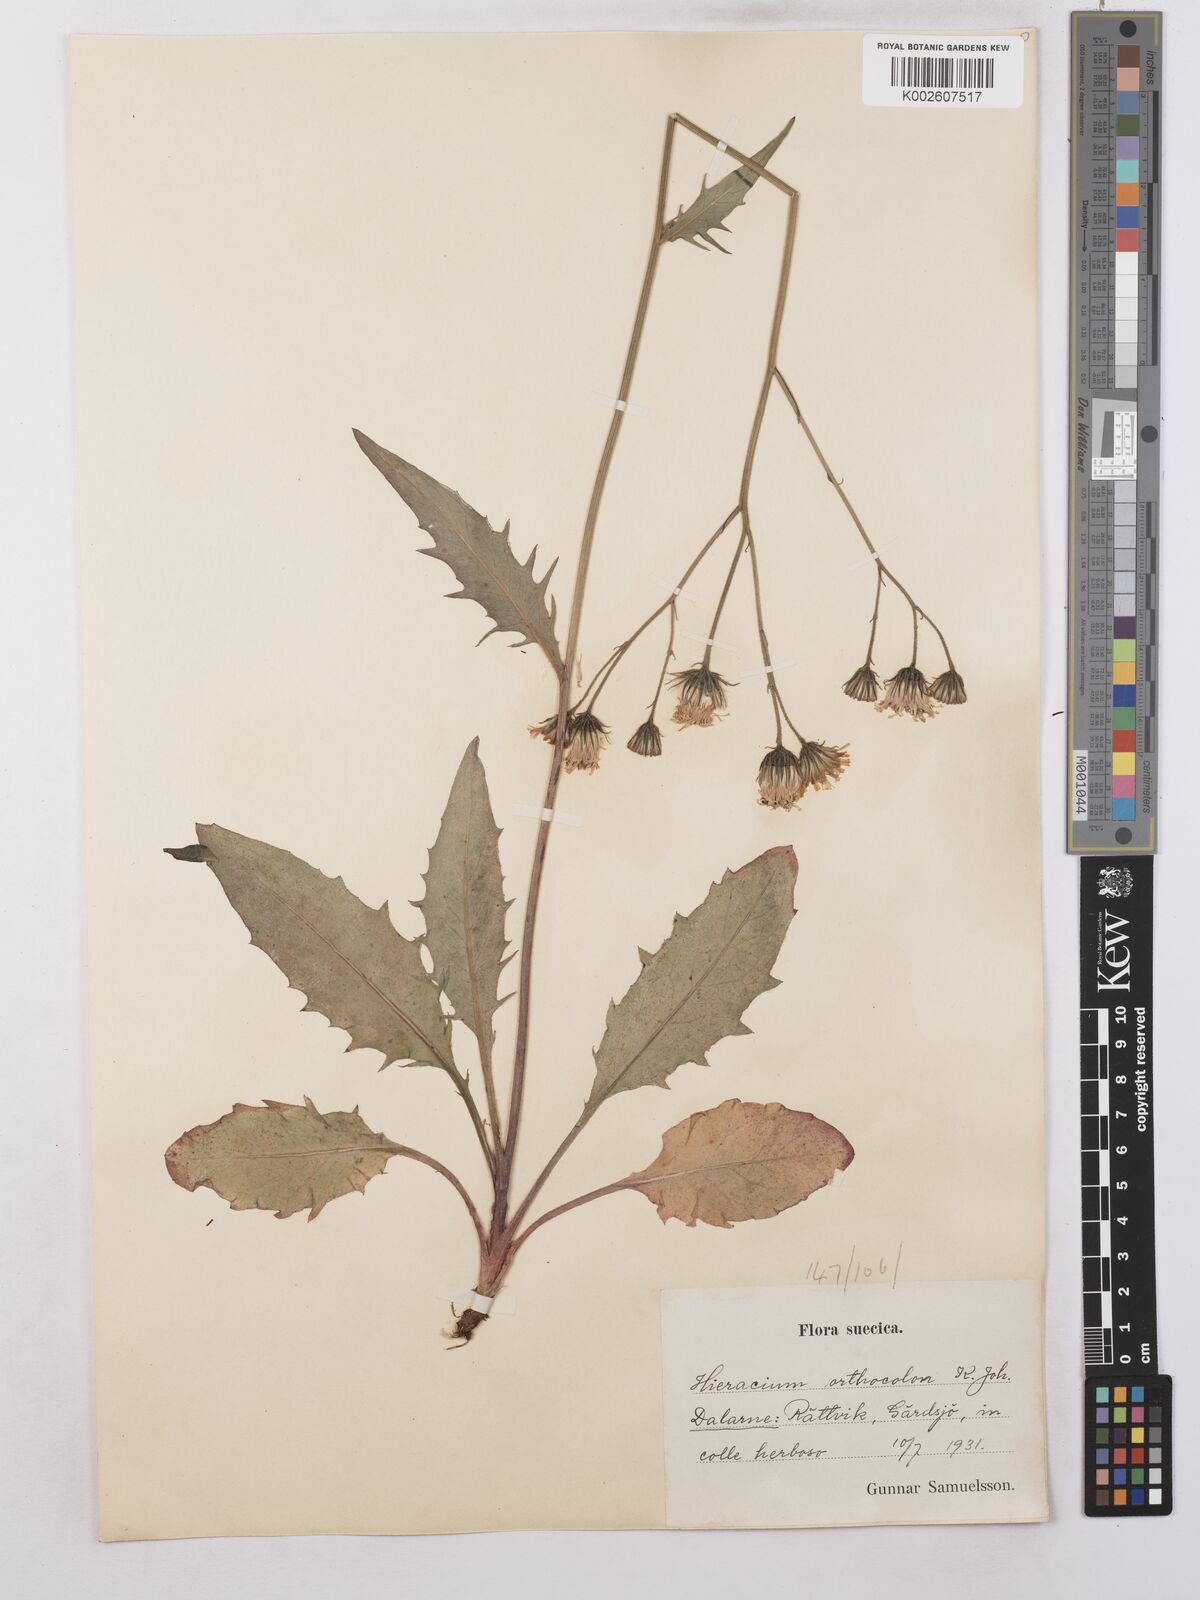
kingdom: Plantae
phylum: Tracheophyta
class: Magnoliopsida
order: Asterales
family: Asteraceae
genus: Hieracium
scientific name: Hieracium orthocolon
